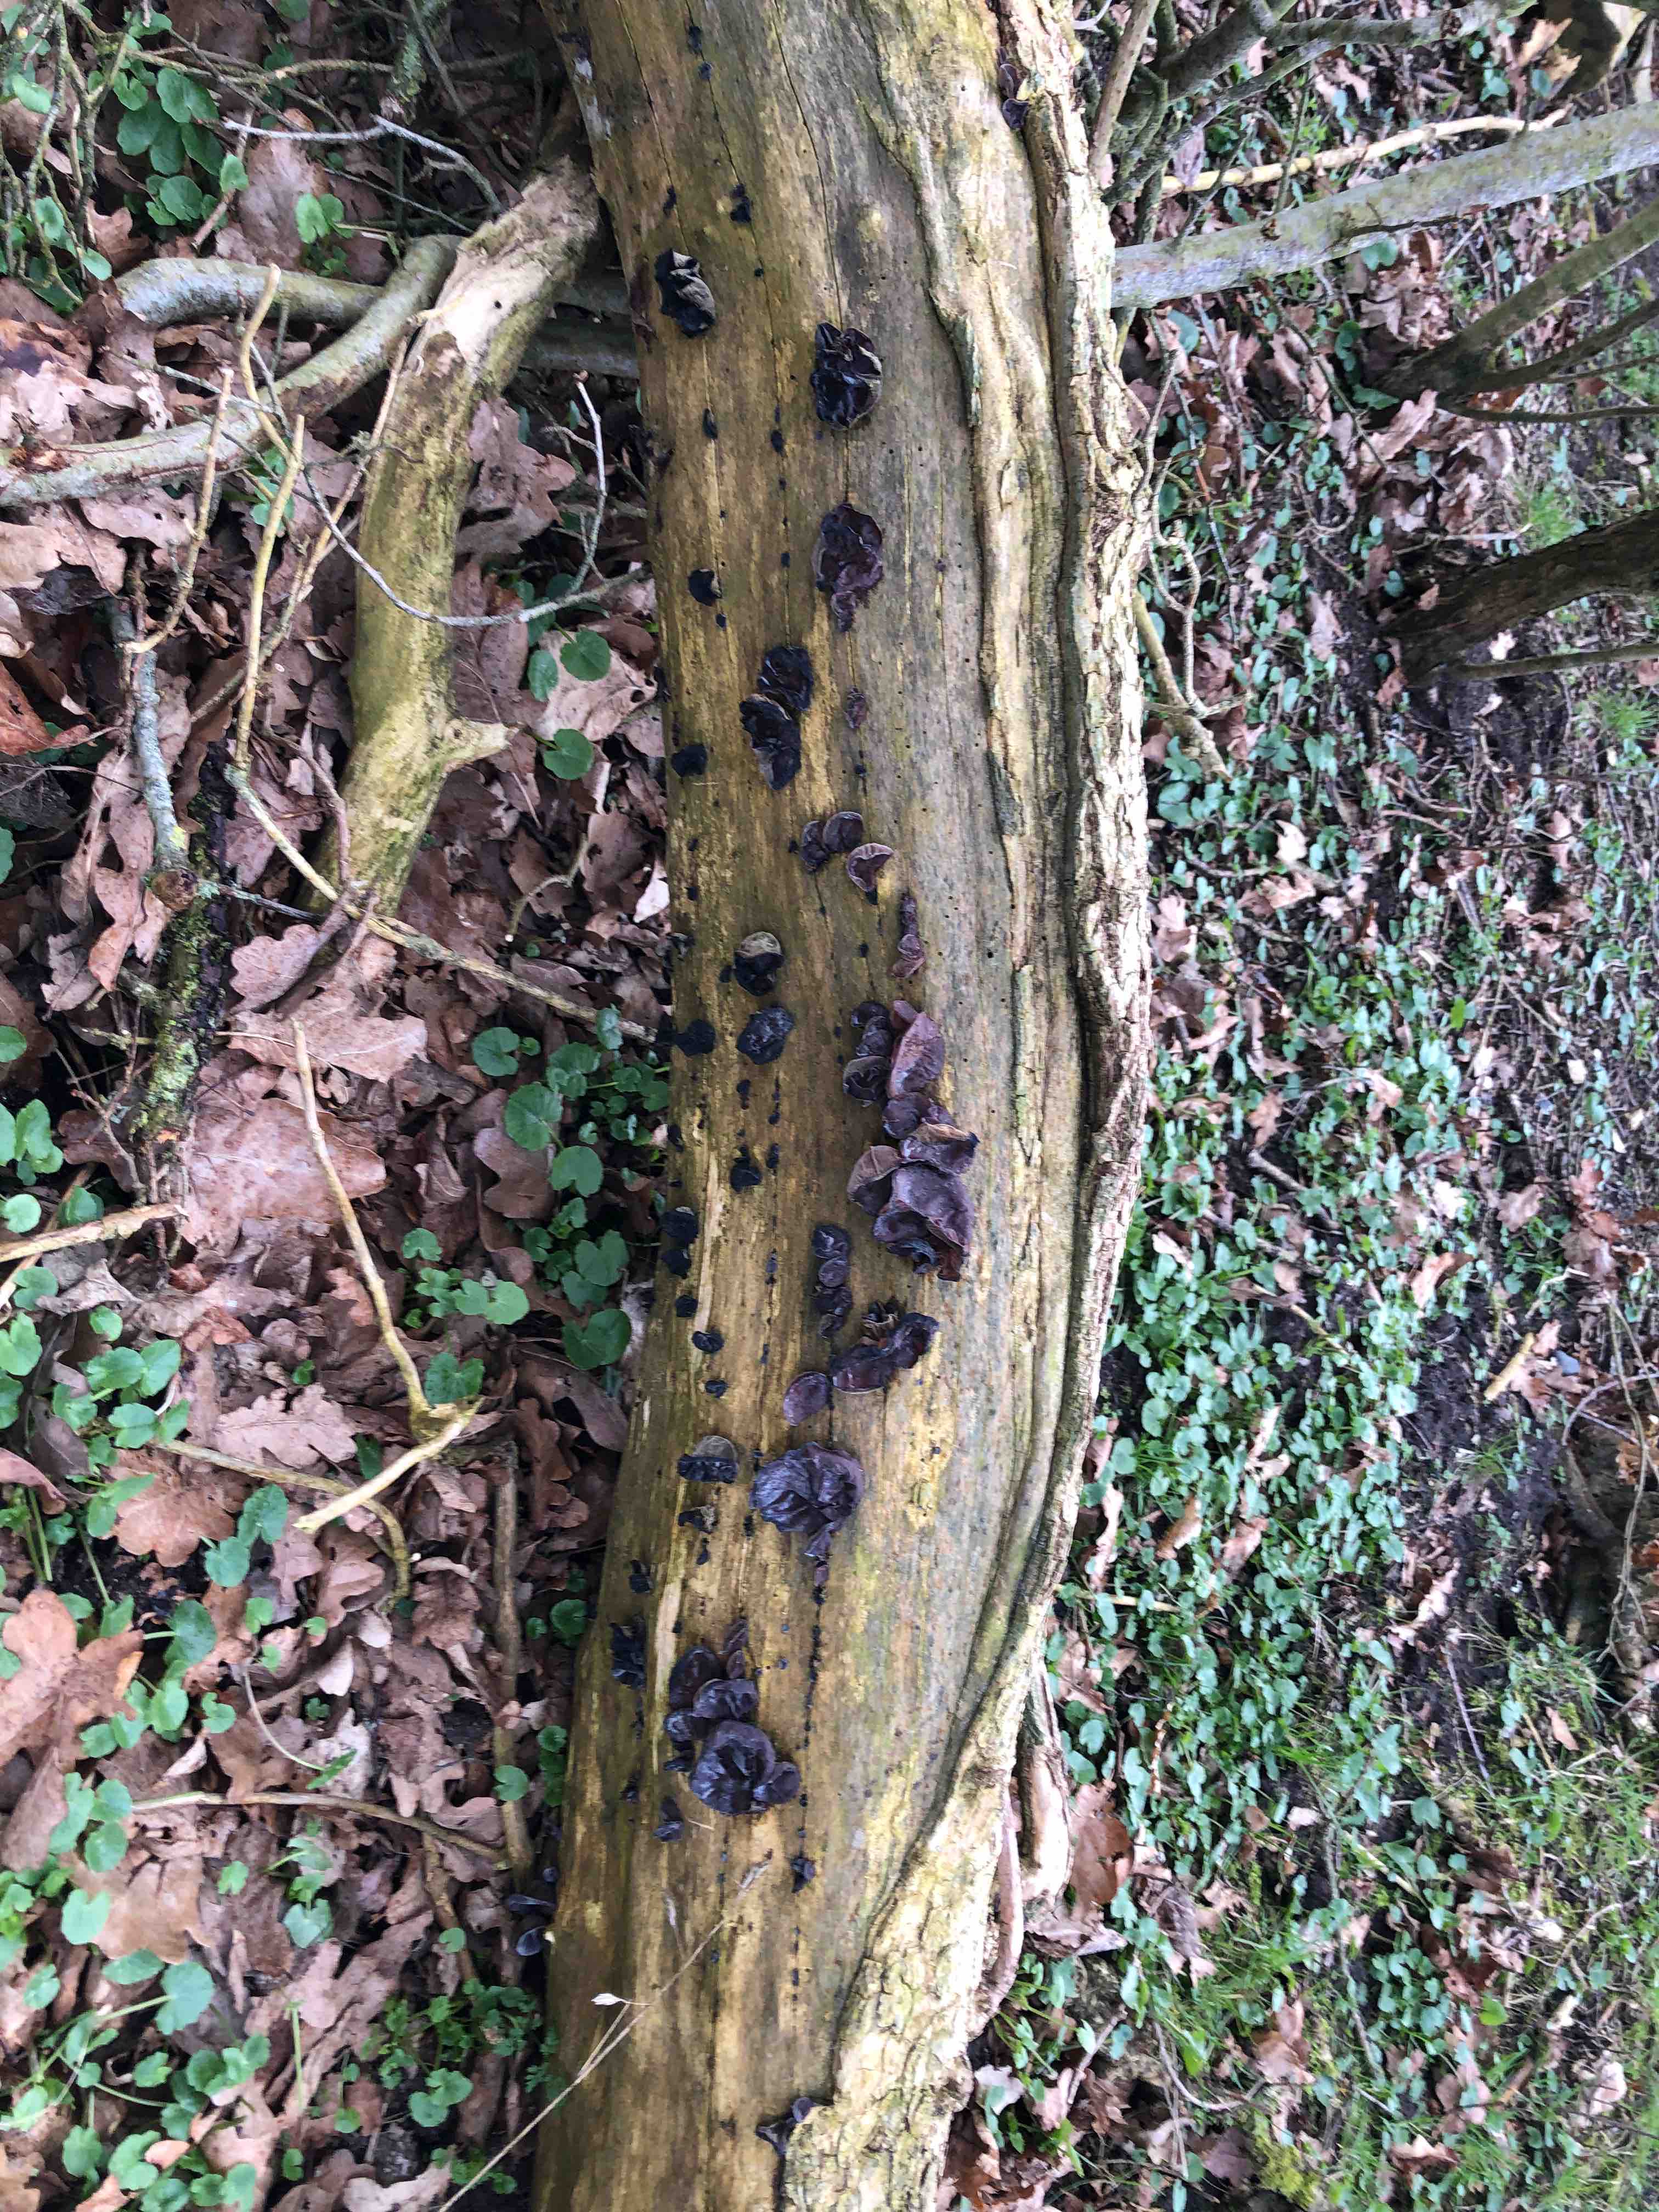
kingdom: Fungi
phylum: Basidiomycota
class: Agaricomycetes
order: Auriculariales
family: Auriculariaceae
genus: Auricularia
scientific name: Auricularia auricula-judae
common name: almindelig judasøre
